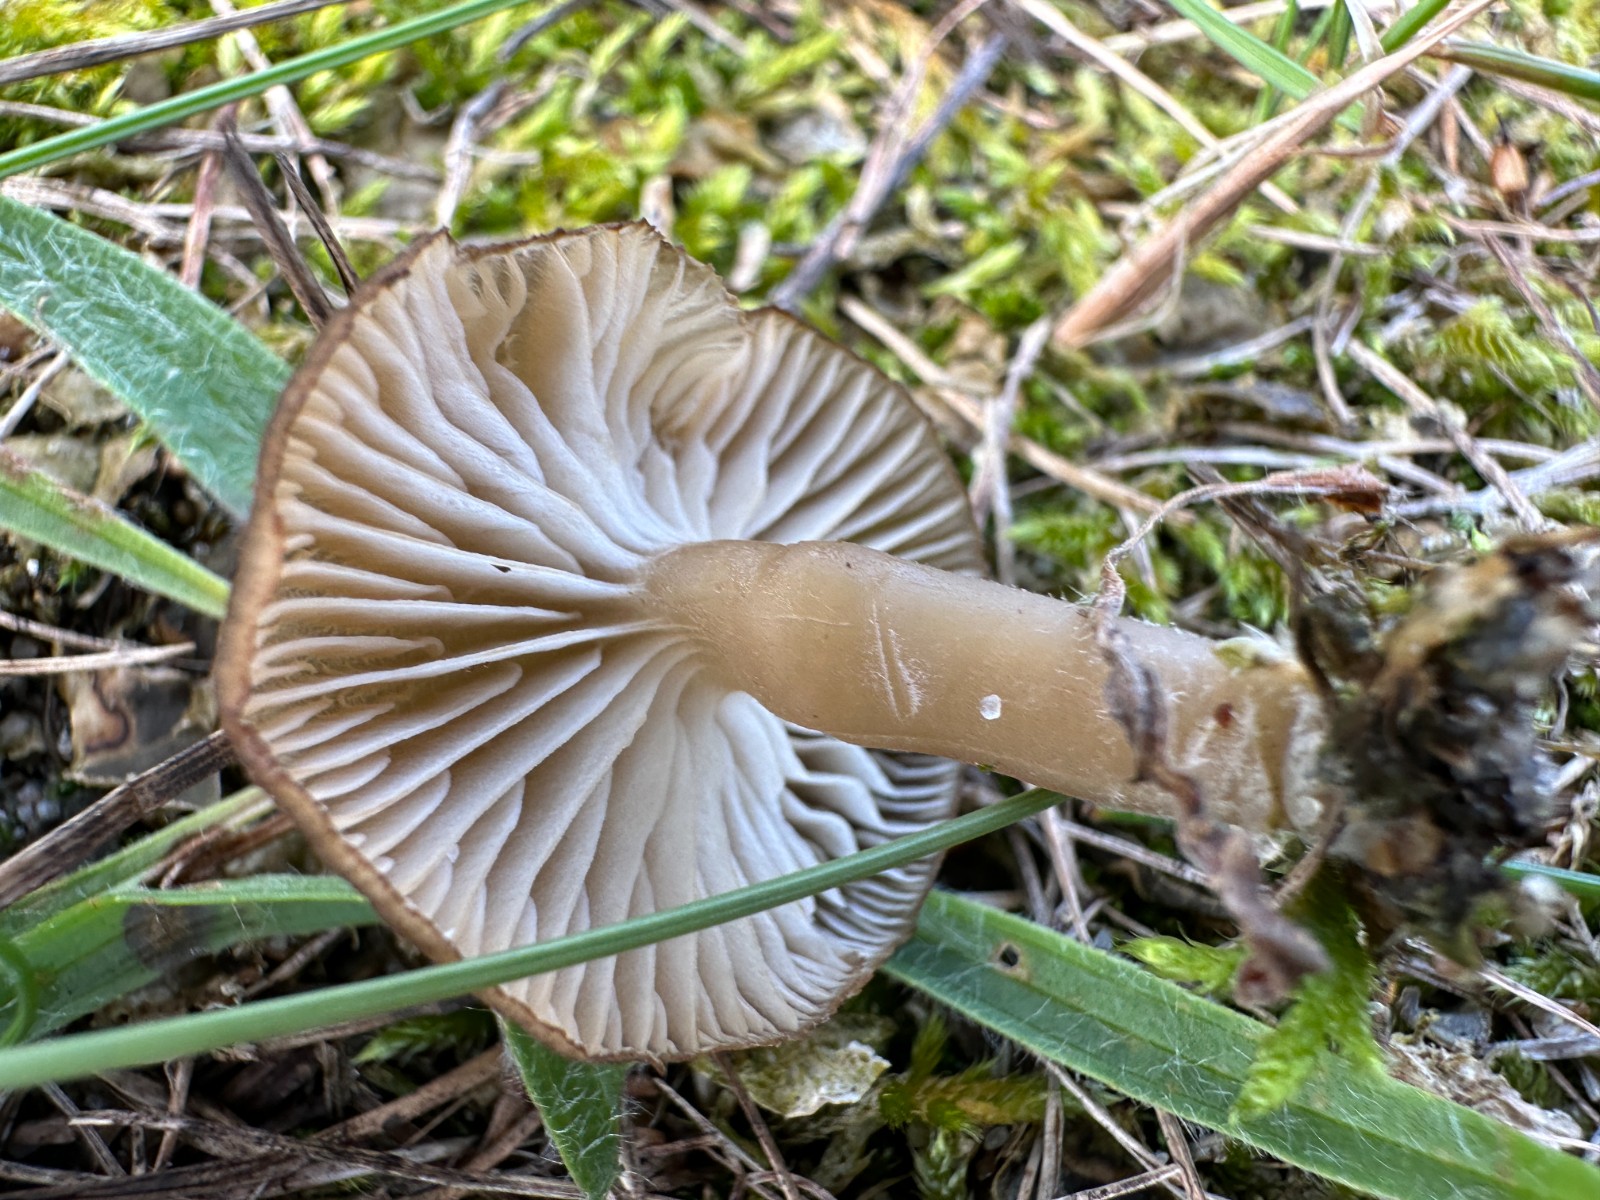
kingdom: Fungi
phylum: Basidiomycota
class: Agaricomycetes
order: Agaricales
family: Tricholomataceae
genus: Gamundia
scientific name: Gamundia xerophila
